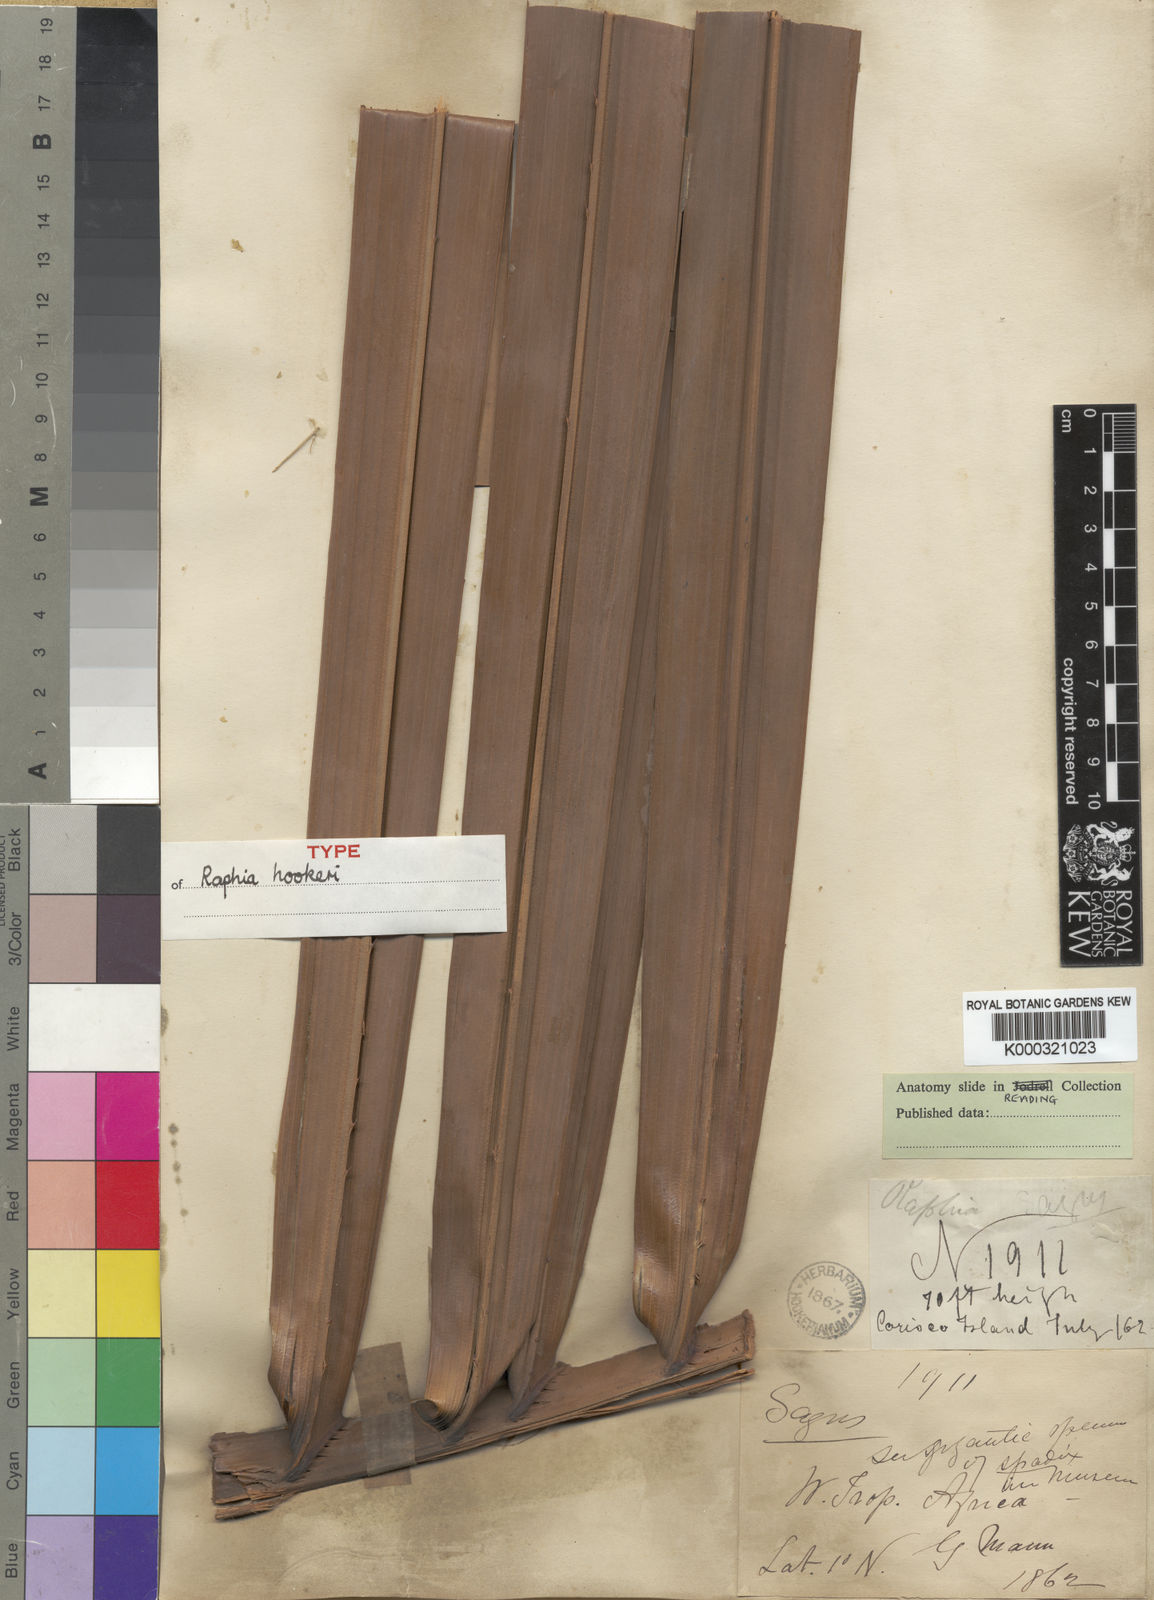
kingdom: Plantae
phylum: Tracheophyta
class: Liliopsida
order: Arecales
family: Arecaceae
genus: Raphia
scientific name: Raphia hookeri
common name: Wine palm
